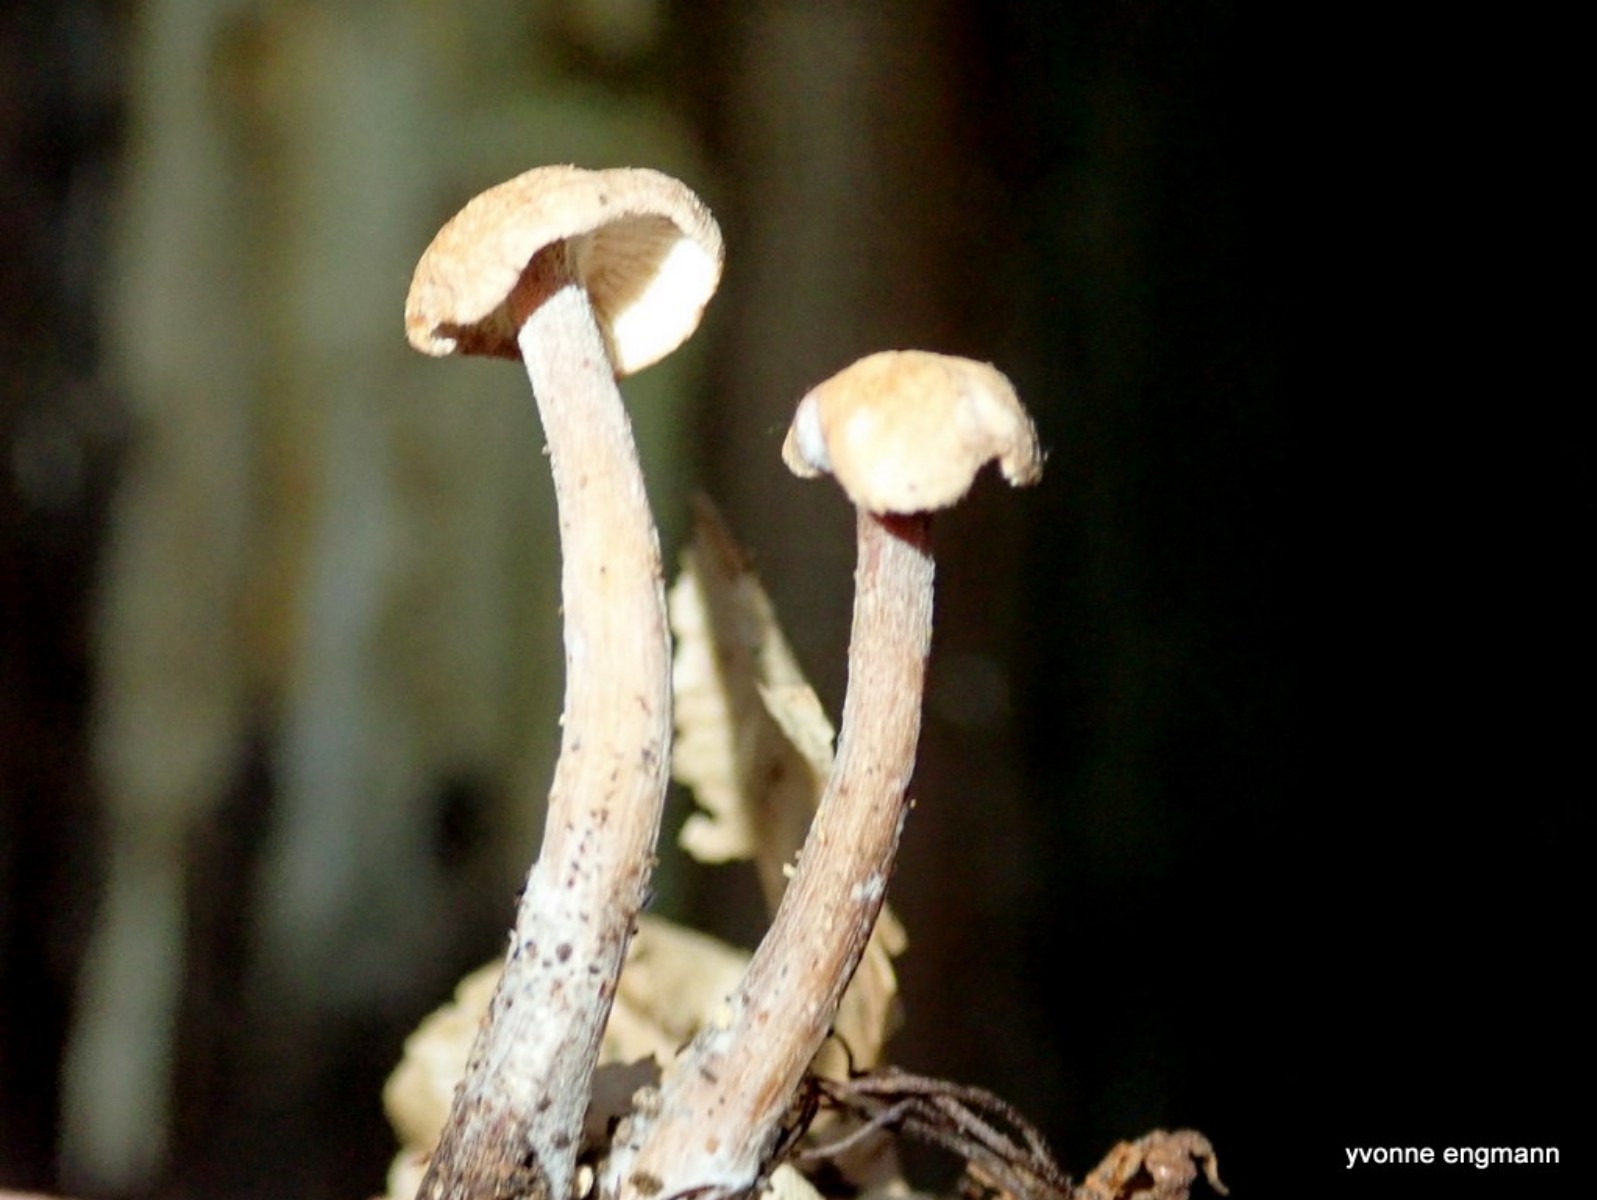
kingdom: Fungi
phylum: Basidiomycota
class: Agaricomycetes
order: Agaricales
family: Omphalotaceae
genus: Collybiopsis
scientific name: Collybiopsis confluens
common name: knippe-fladhat
